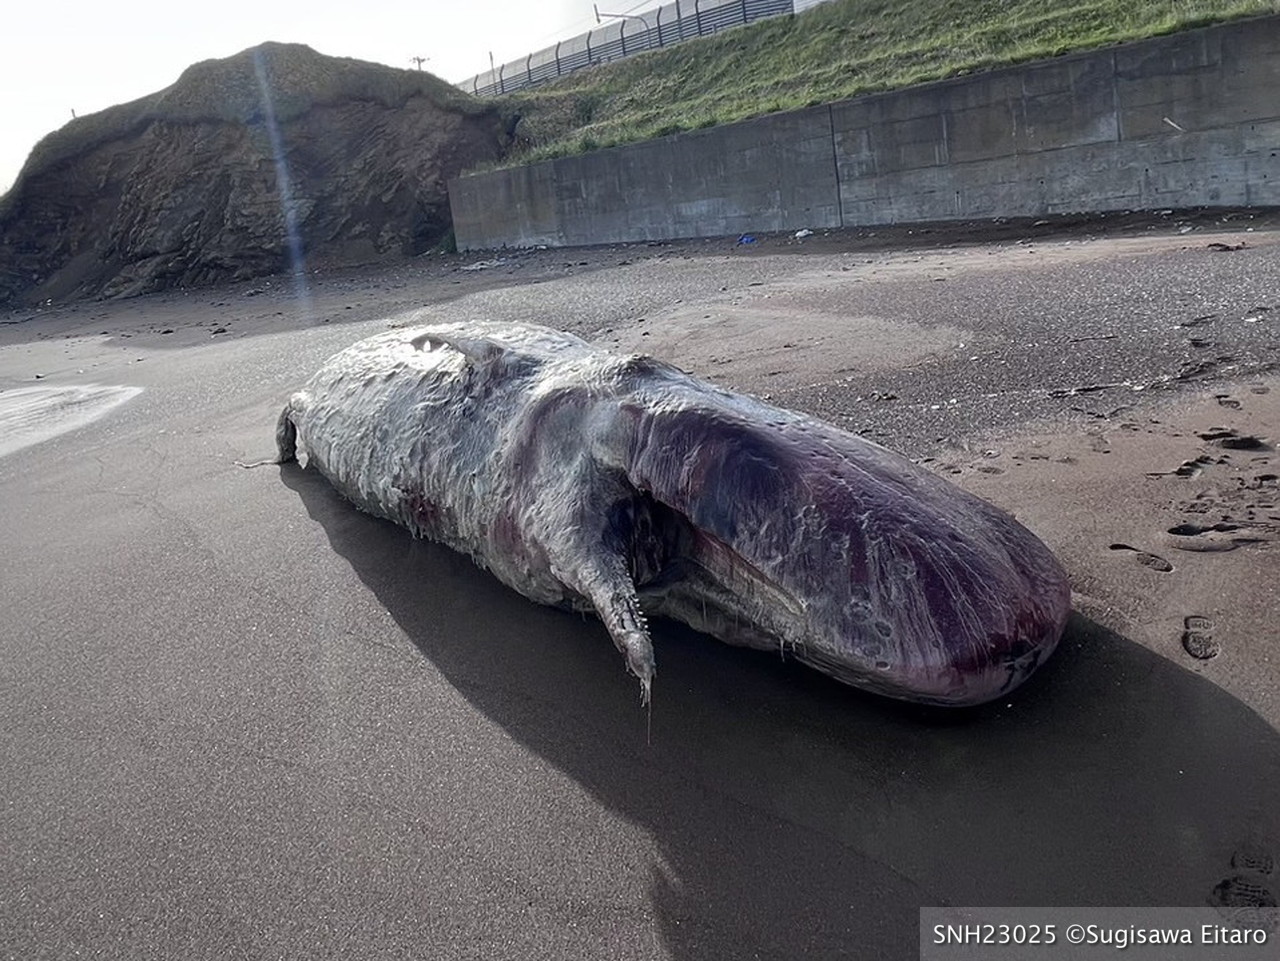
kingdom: Animalia
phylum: Chordata
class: Mammalia
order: Cetacea
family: Physeteridae
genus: Physeter
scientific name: Physeter macrocephalus
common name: Sperm whale
